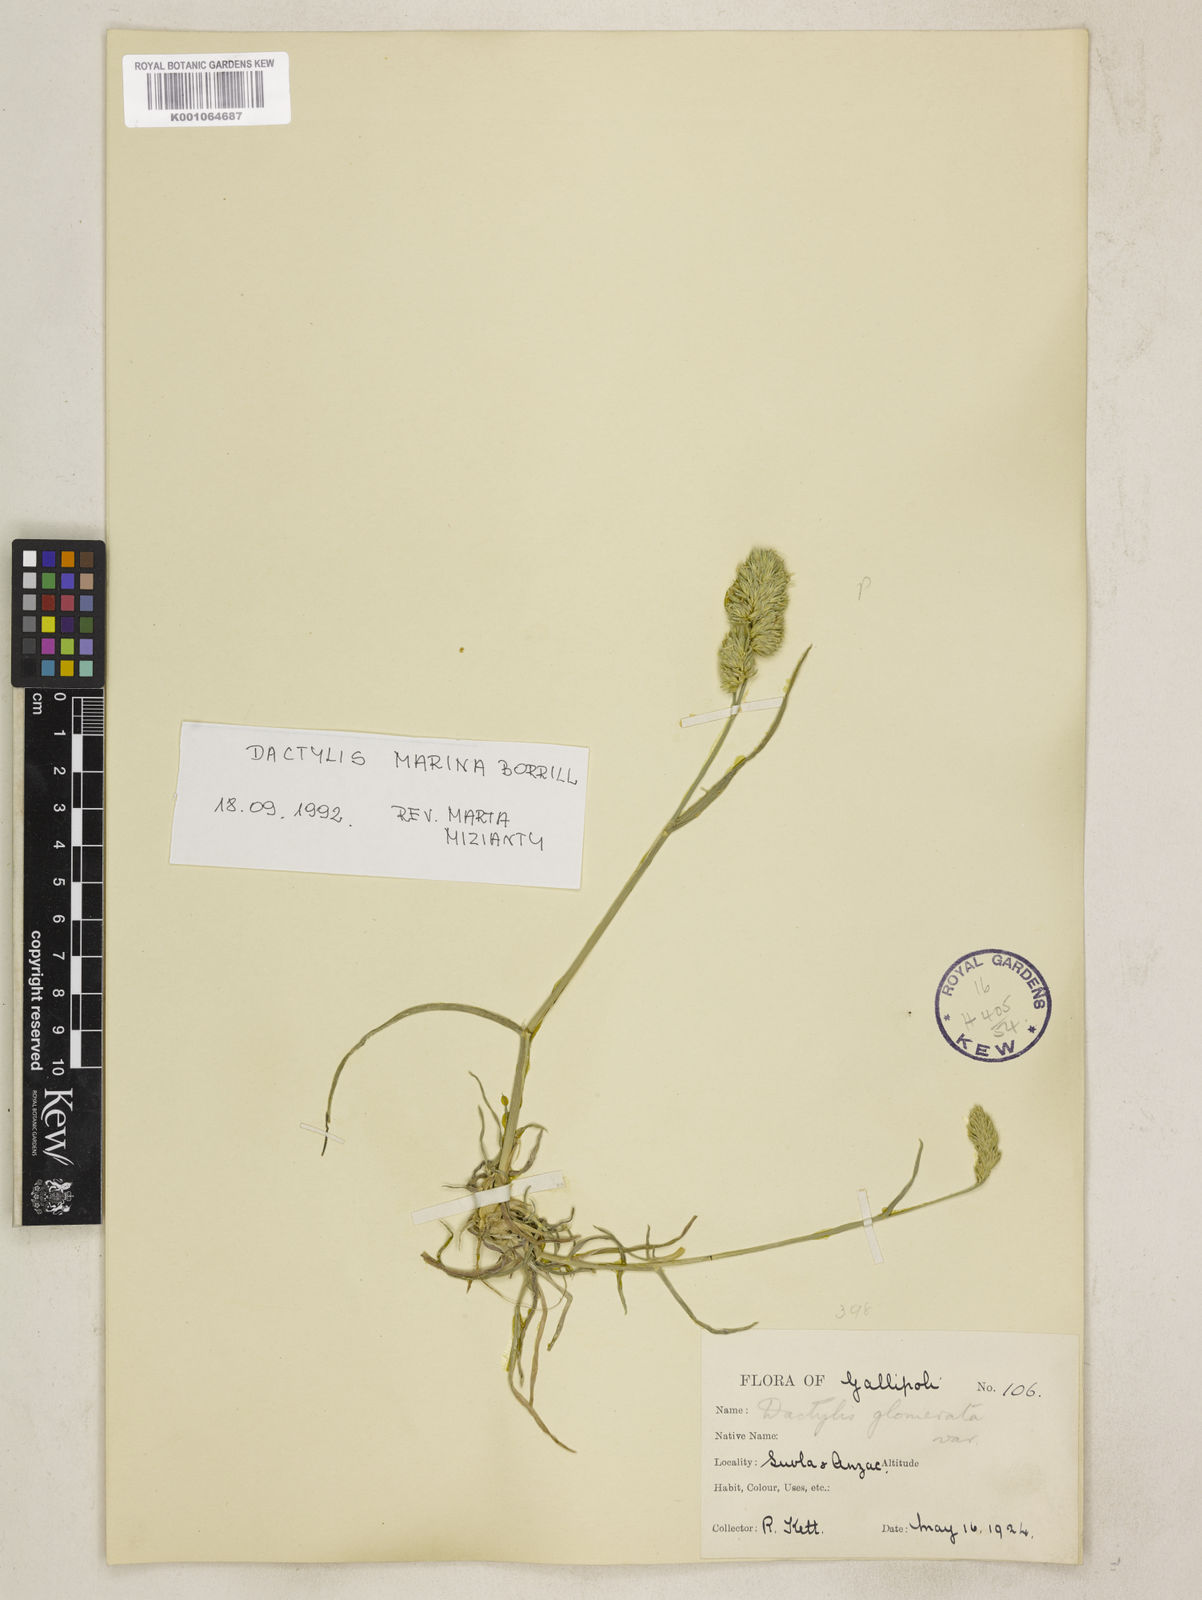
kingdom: Plantae
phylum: Tracheophyta
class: Liliopsida
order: Poales
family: Poaceae
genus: Dactylis
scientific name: Dactylis glomerata
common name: Orchardgrass
